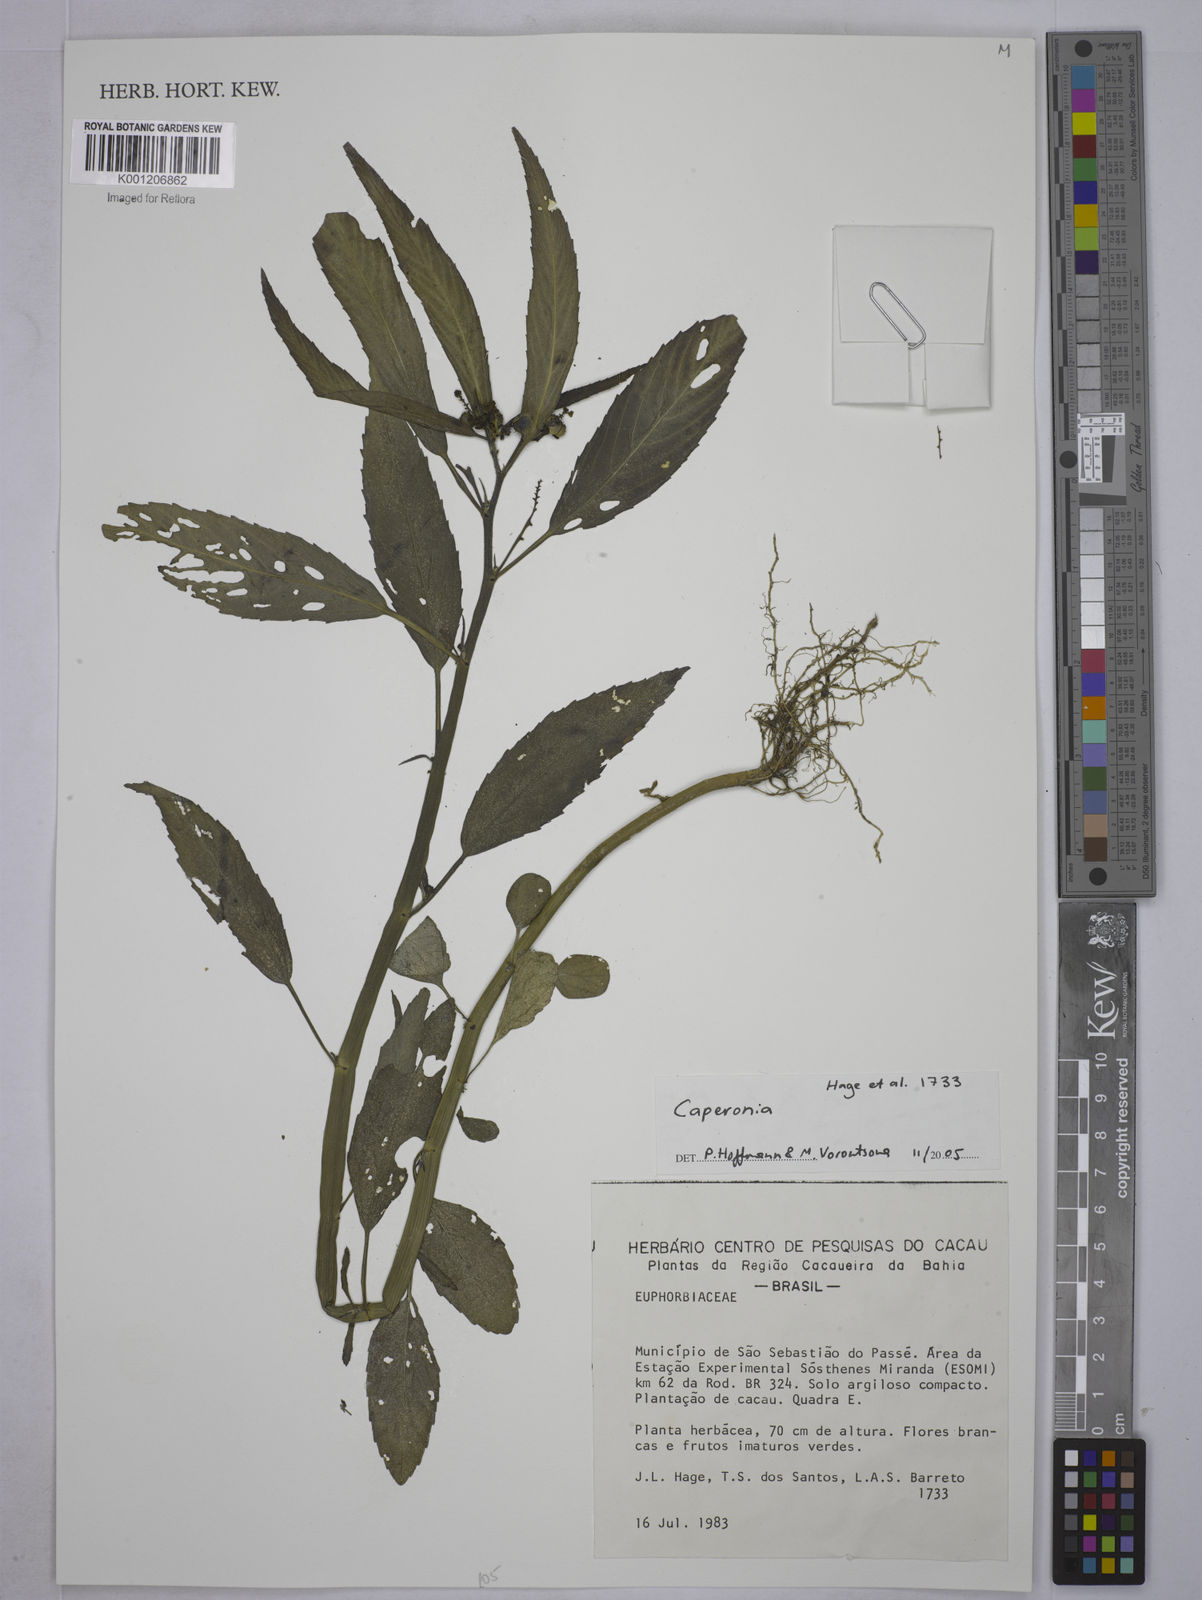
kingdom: Plantae
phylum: Tracheophyta
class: Magnoliopsida
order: Malpighiales
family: Euphorbiaceae
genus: Caperonia
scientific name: Caperonia
